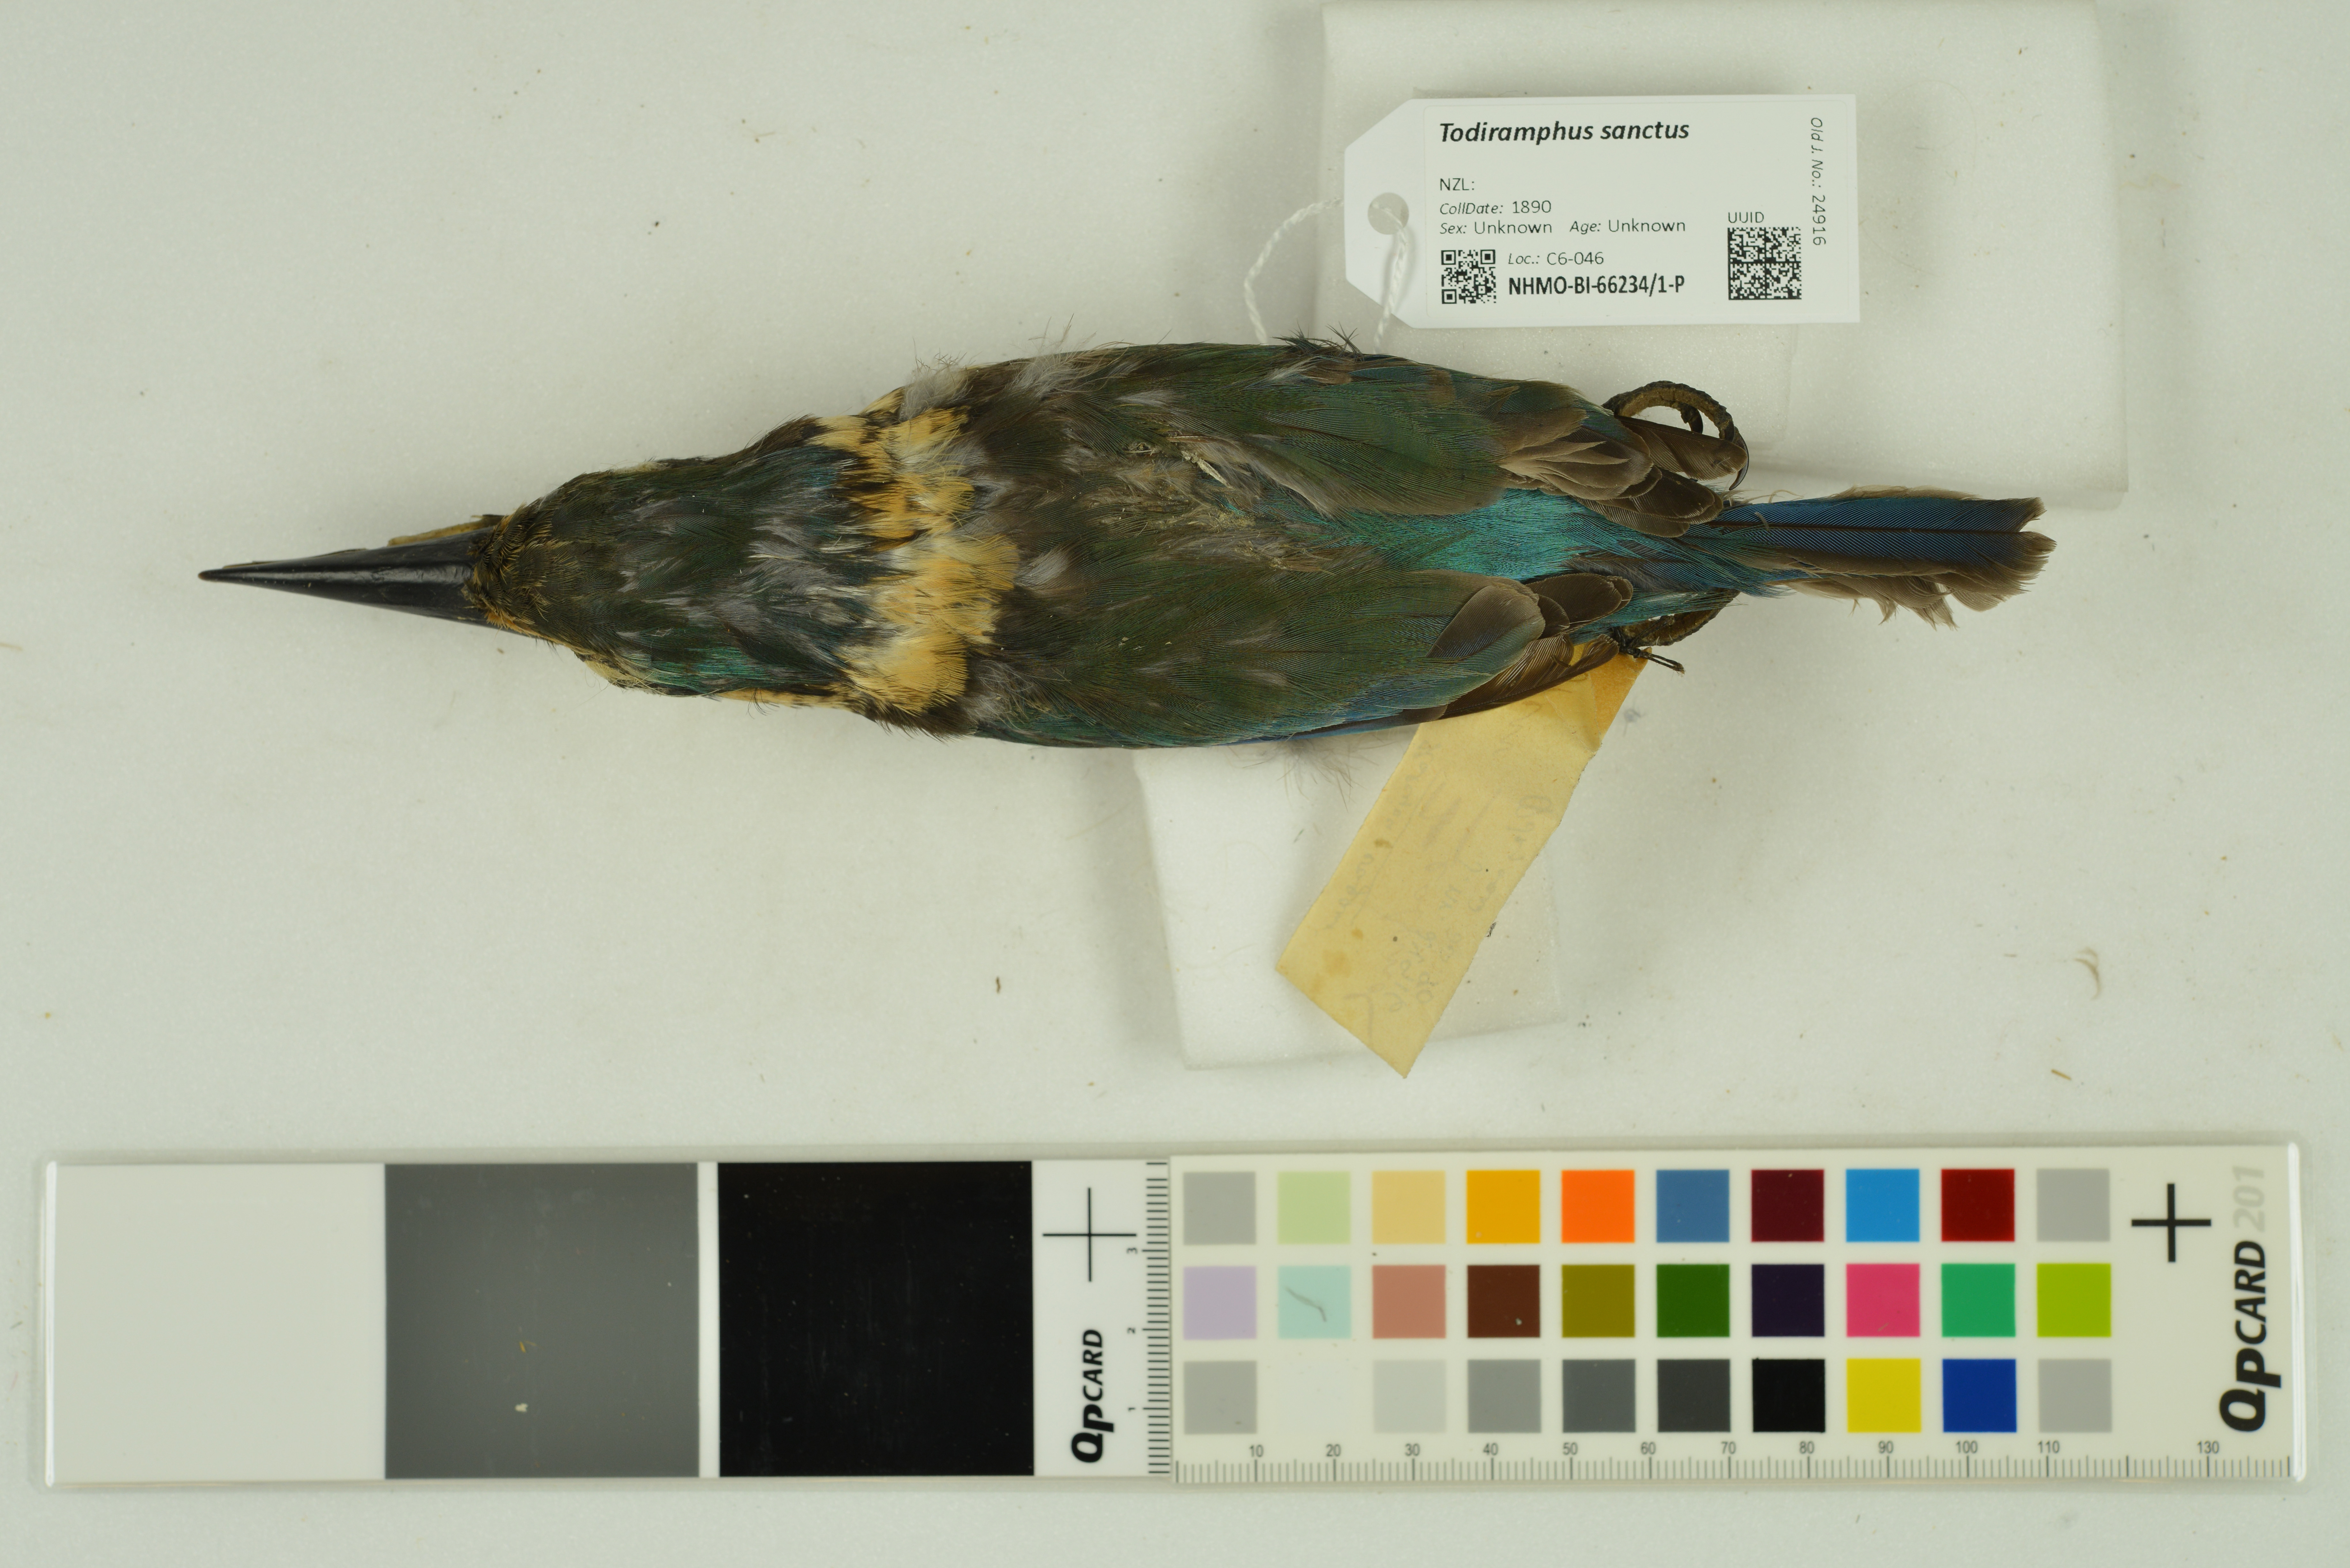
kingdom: Animalia
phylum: Chordata
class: Aves
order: Coraciiformes
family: Alcedinidae
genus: Todiramphus
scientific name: Todiramphus sanctus
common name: Sacred kingfisher
